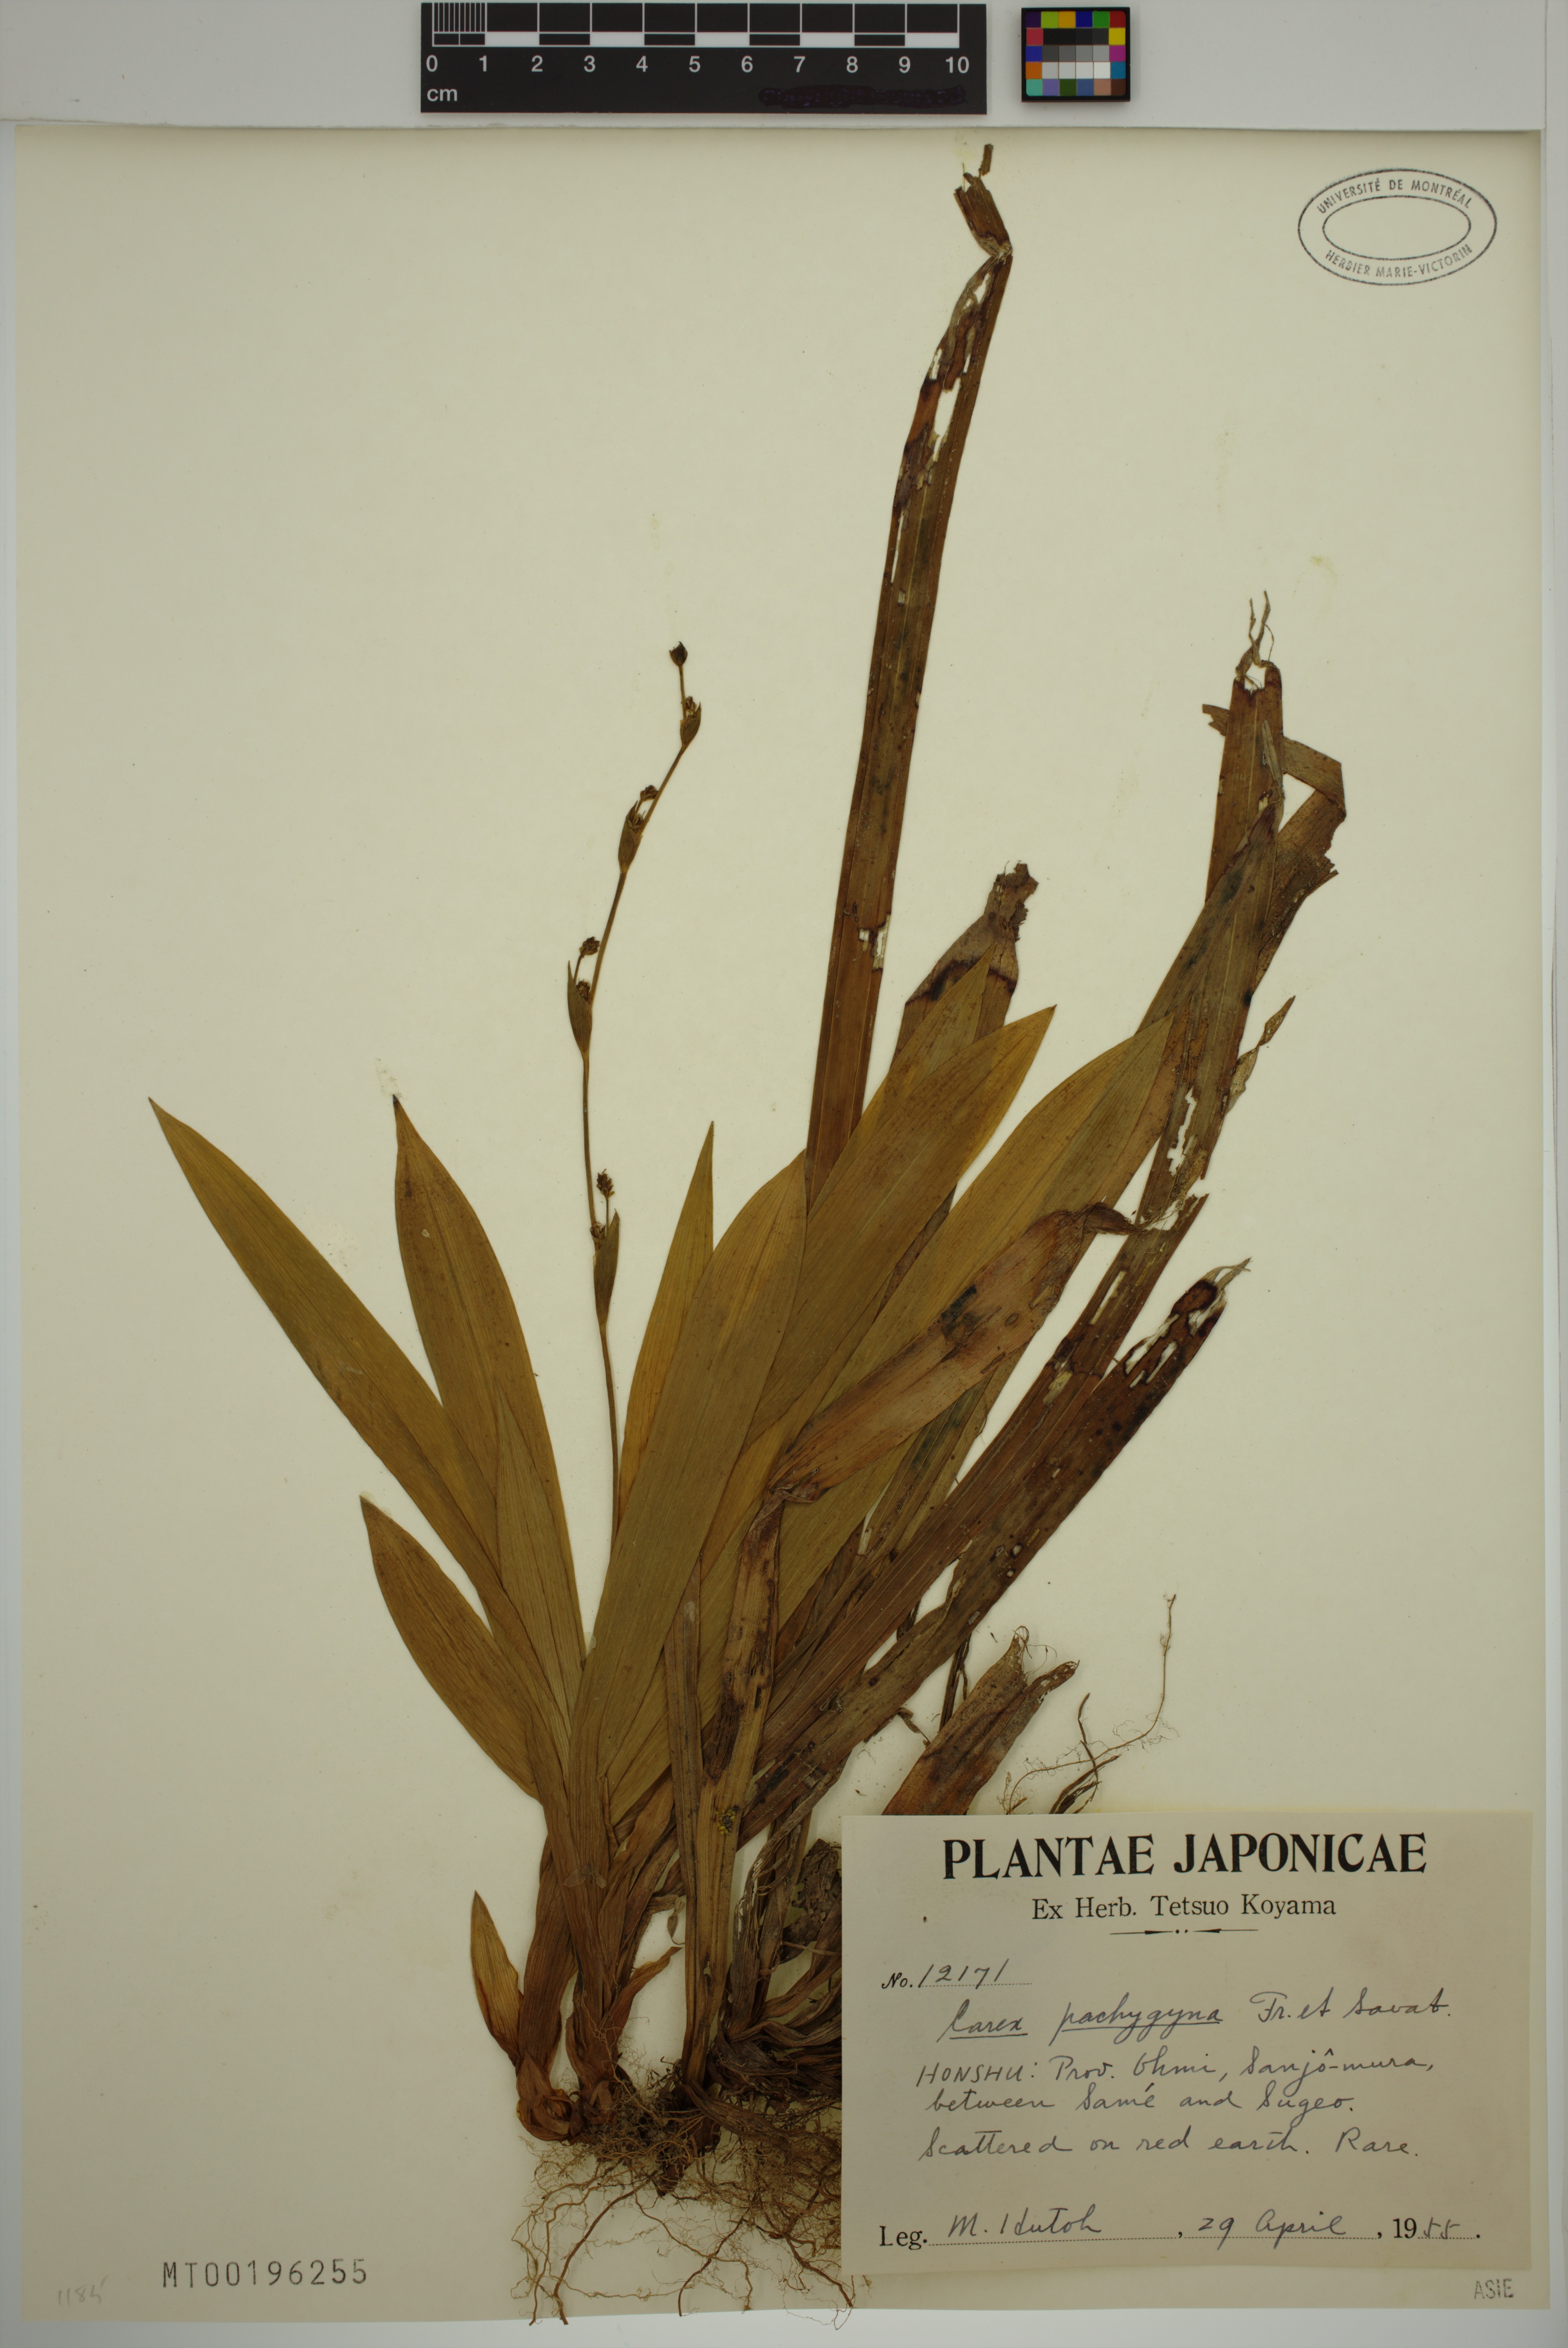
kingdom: Plantae
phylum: Tracheophyta
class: Liliopsida
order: Poales
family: Cyperaceae
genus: Carex
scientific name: Carex pachygyna
